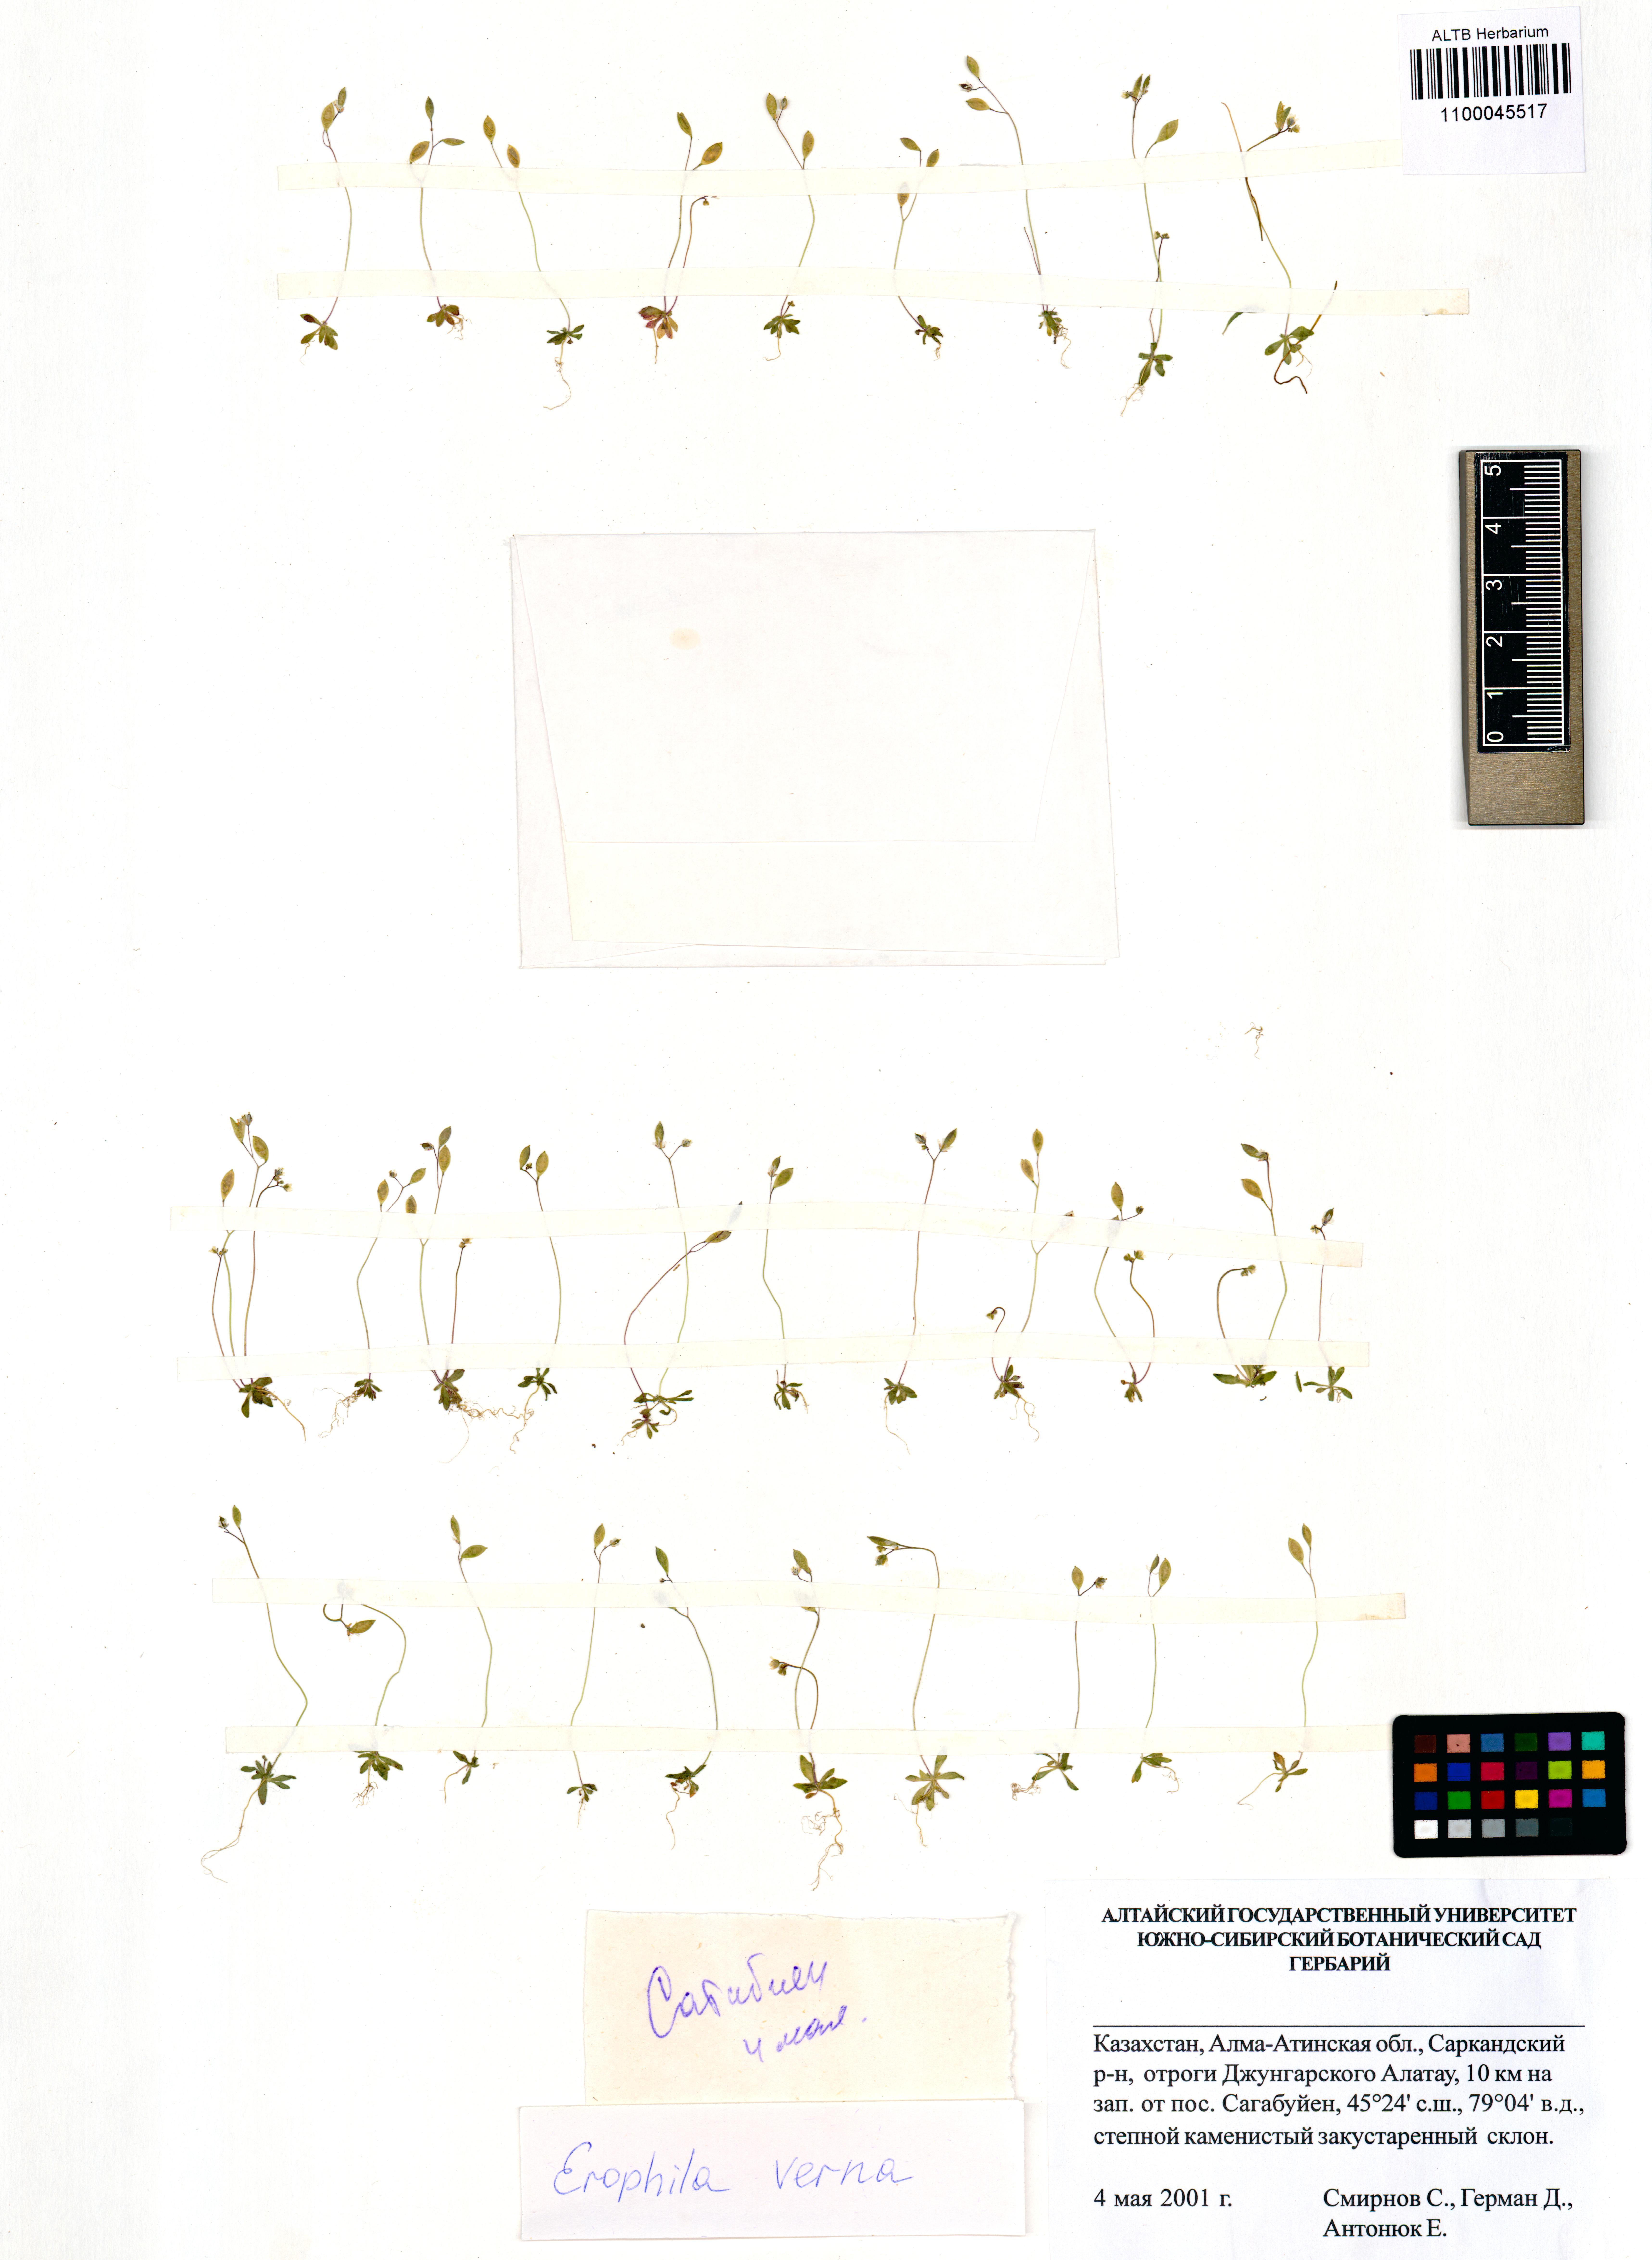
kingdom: Plantae
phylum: Tracheophyta
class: Magnoliopsida
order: Brassicales
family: Brassicaceae
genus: Draba
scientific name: Draba verna
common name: Spring draba
